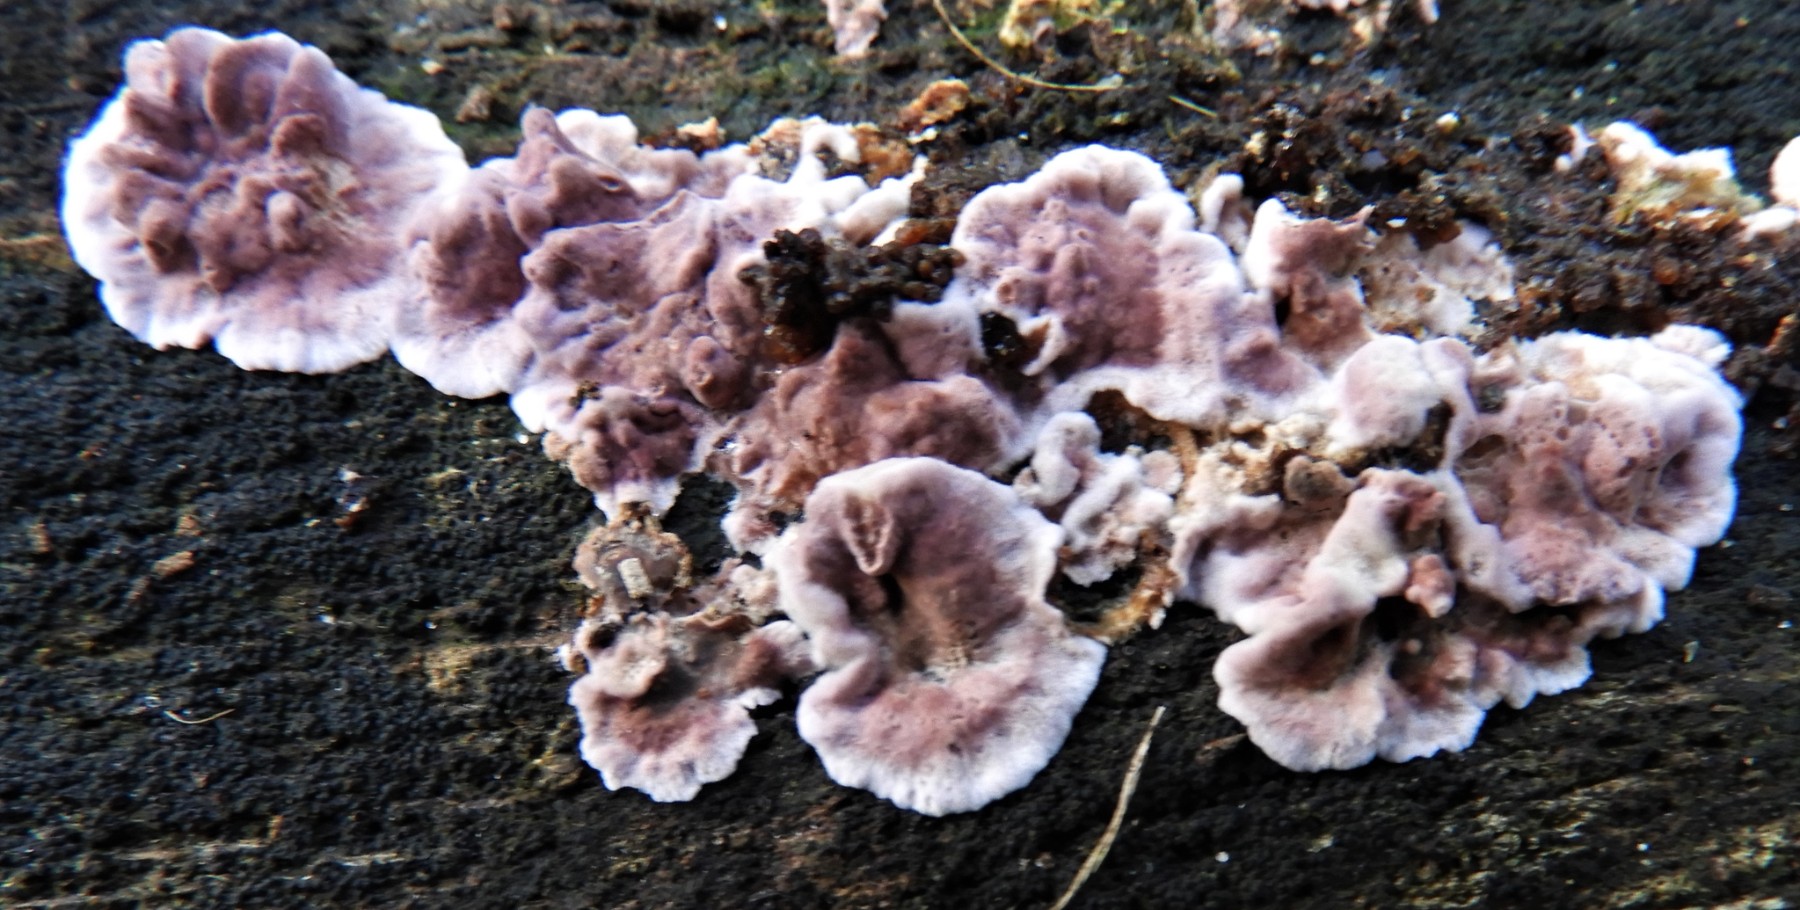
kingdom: Fungi
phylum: Basidiomycota
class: Agaricomycetes
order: Agaricales
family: Cyphellaceae
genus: Chondrostereum
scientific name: Chondrostereum purpureum
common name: purpurlædersvamp
